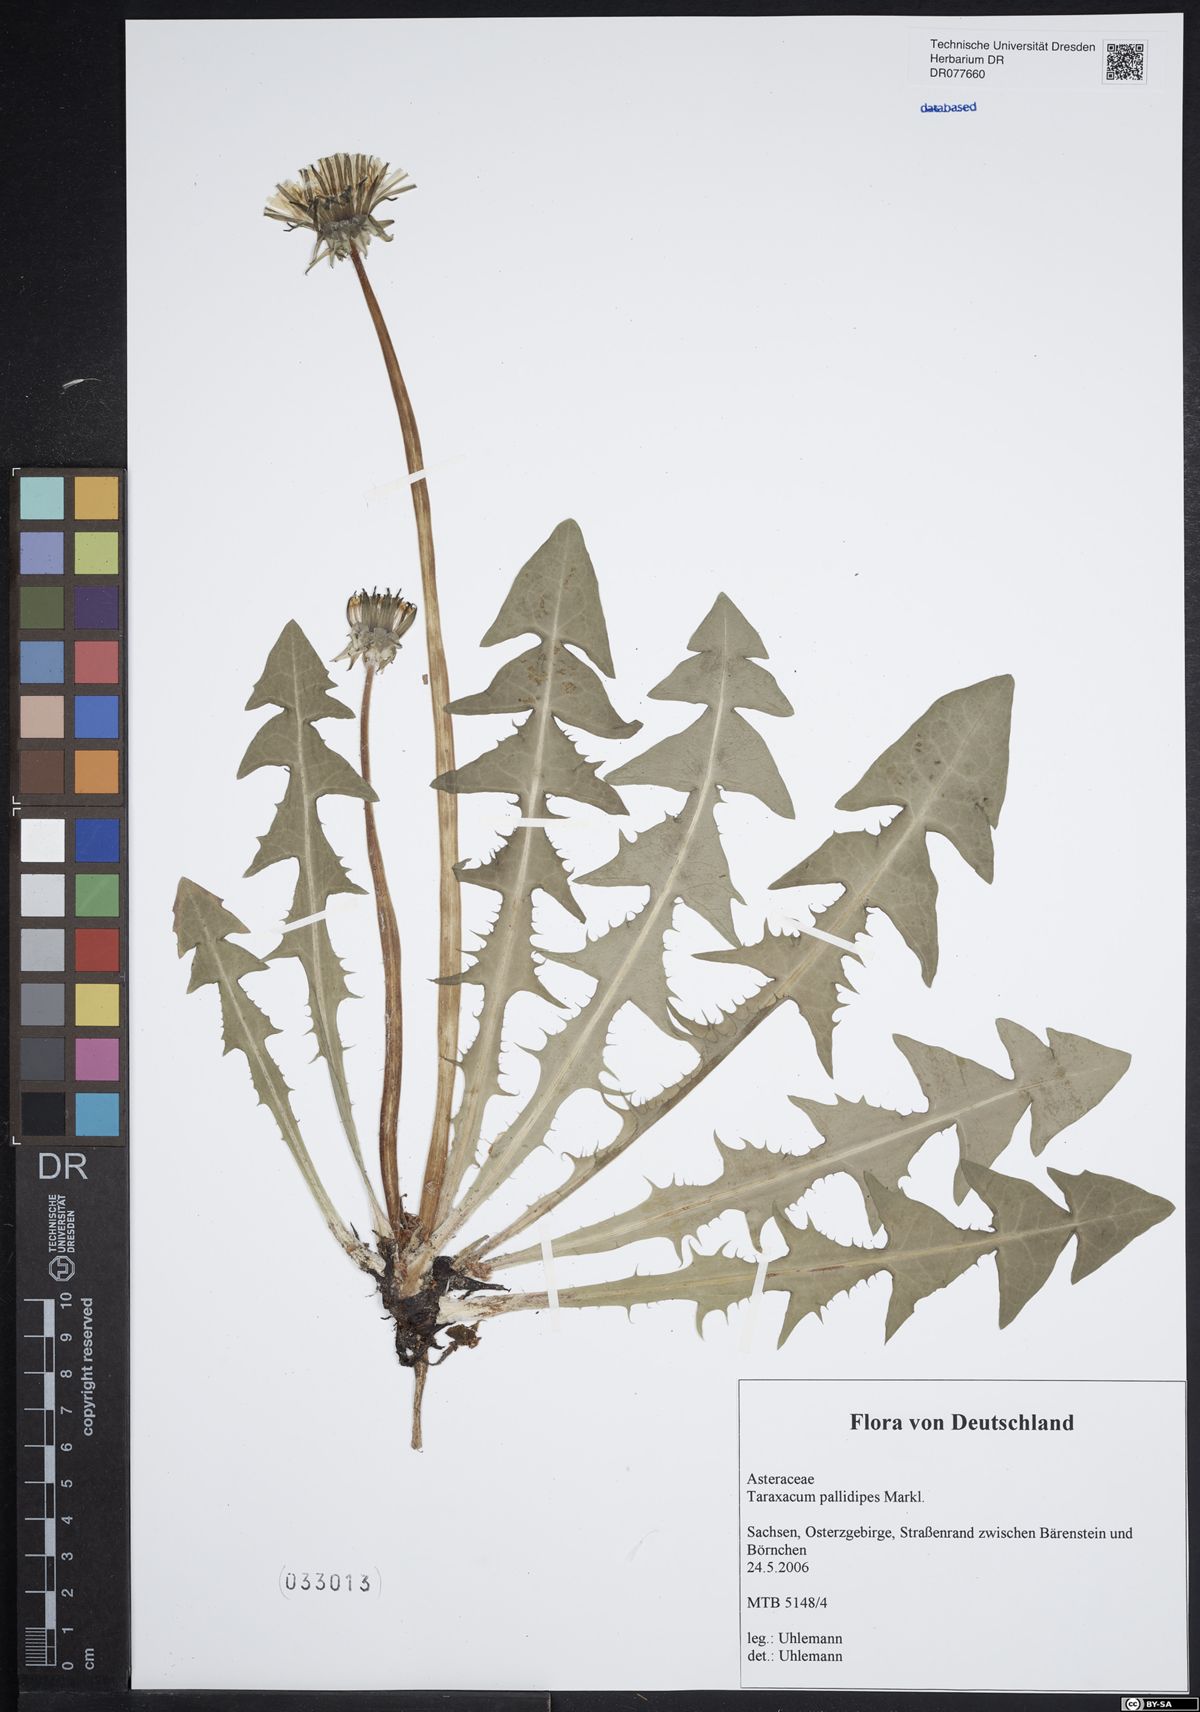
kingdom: Plantae
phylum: Tracheophyta
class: Magnoliopsida
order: Asterales
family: Asteraceae
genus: Taraxacum
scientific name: Taraxacum pallidipes
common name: Grey-bracted dandelion
